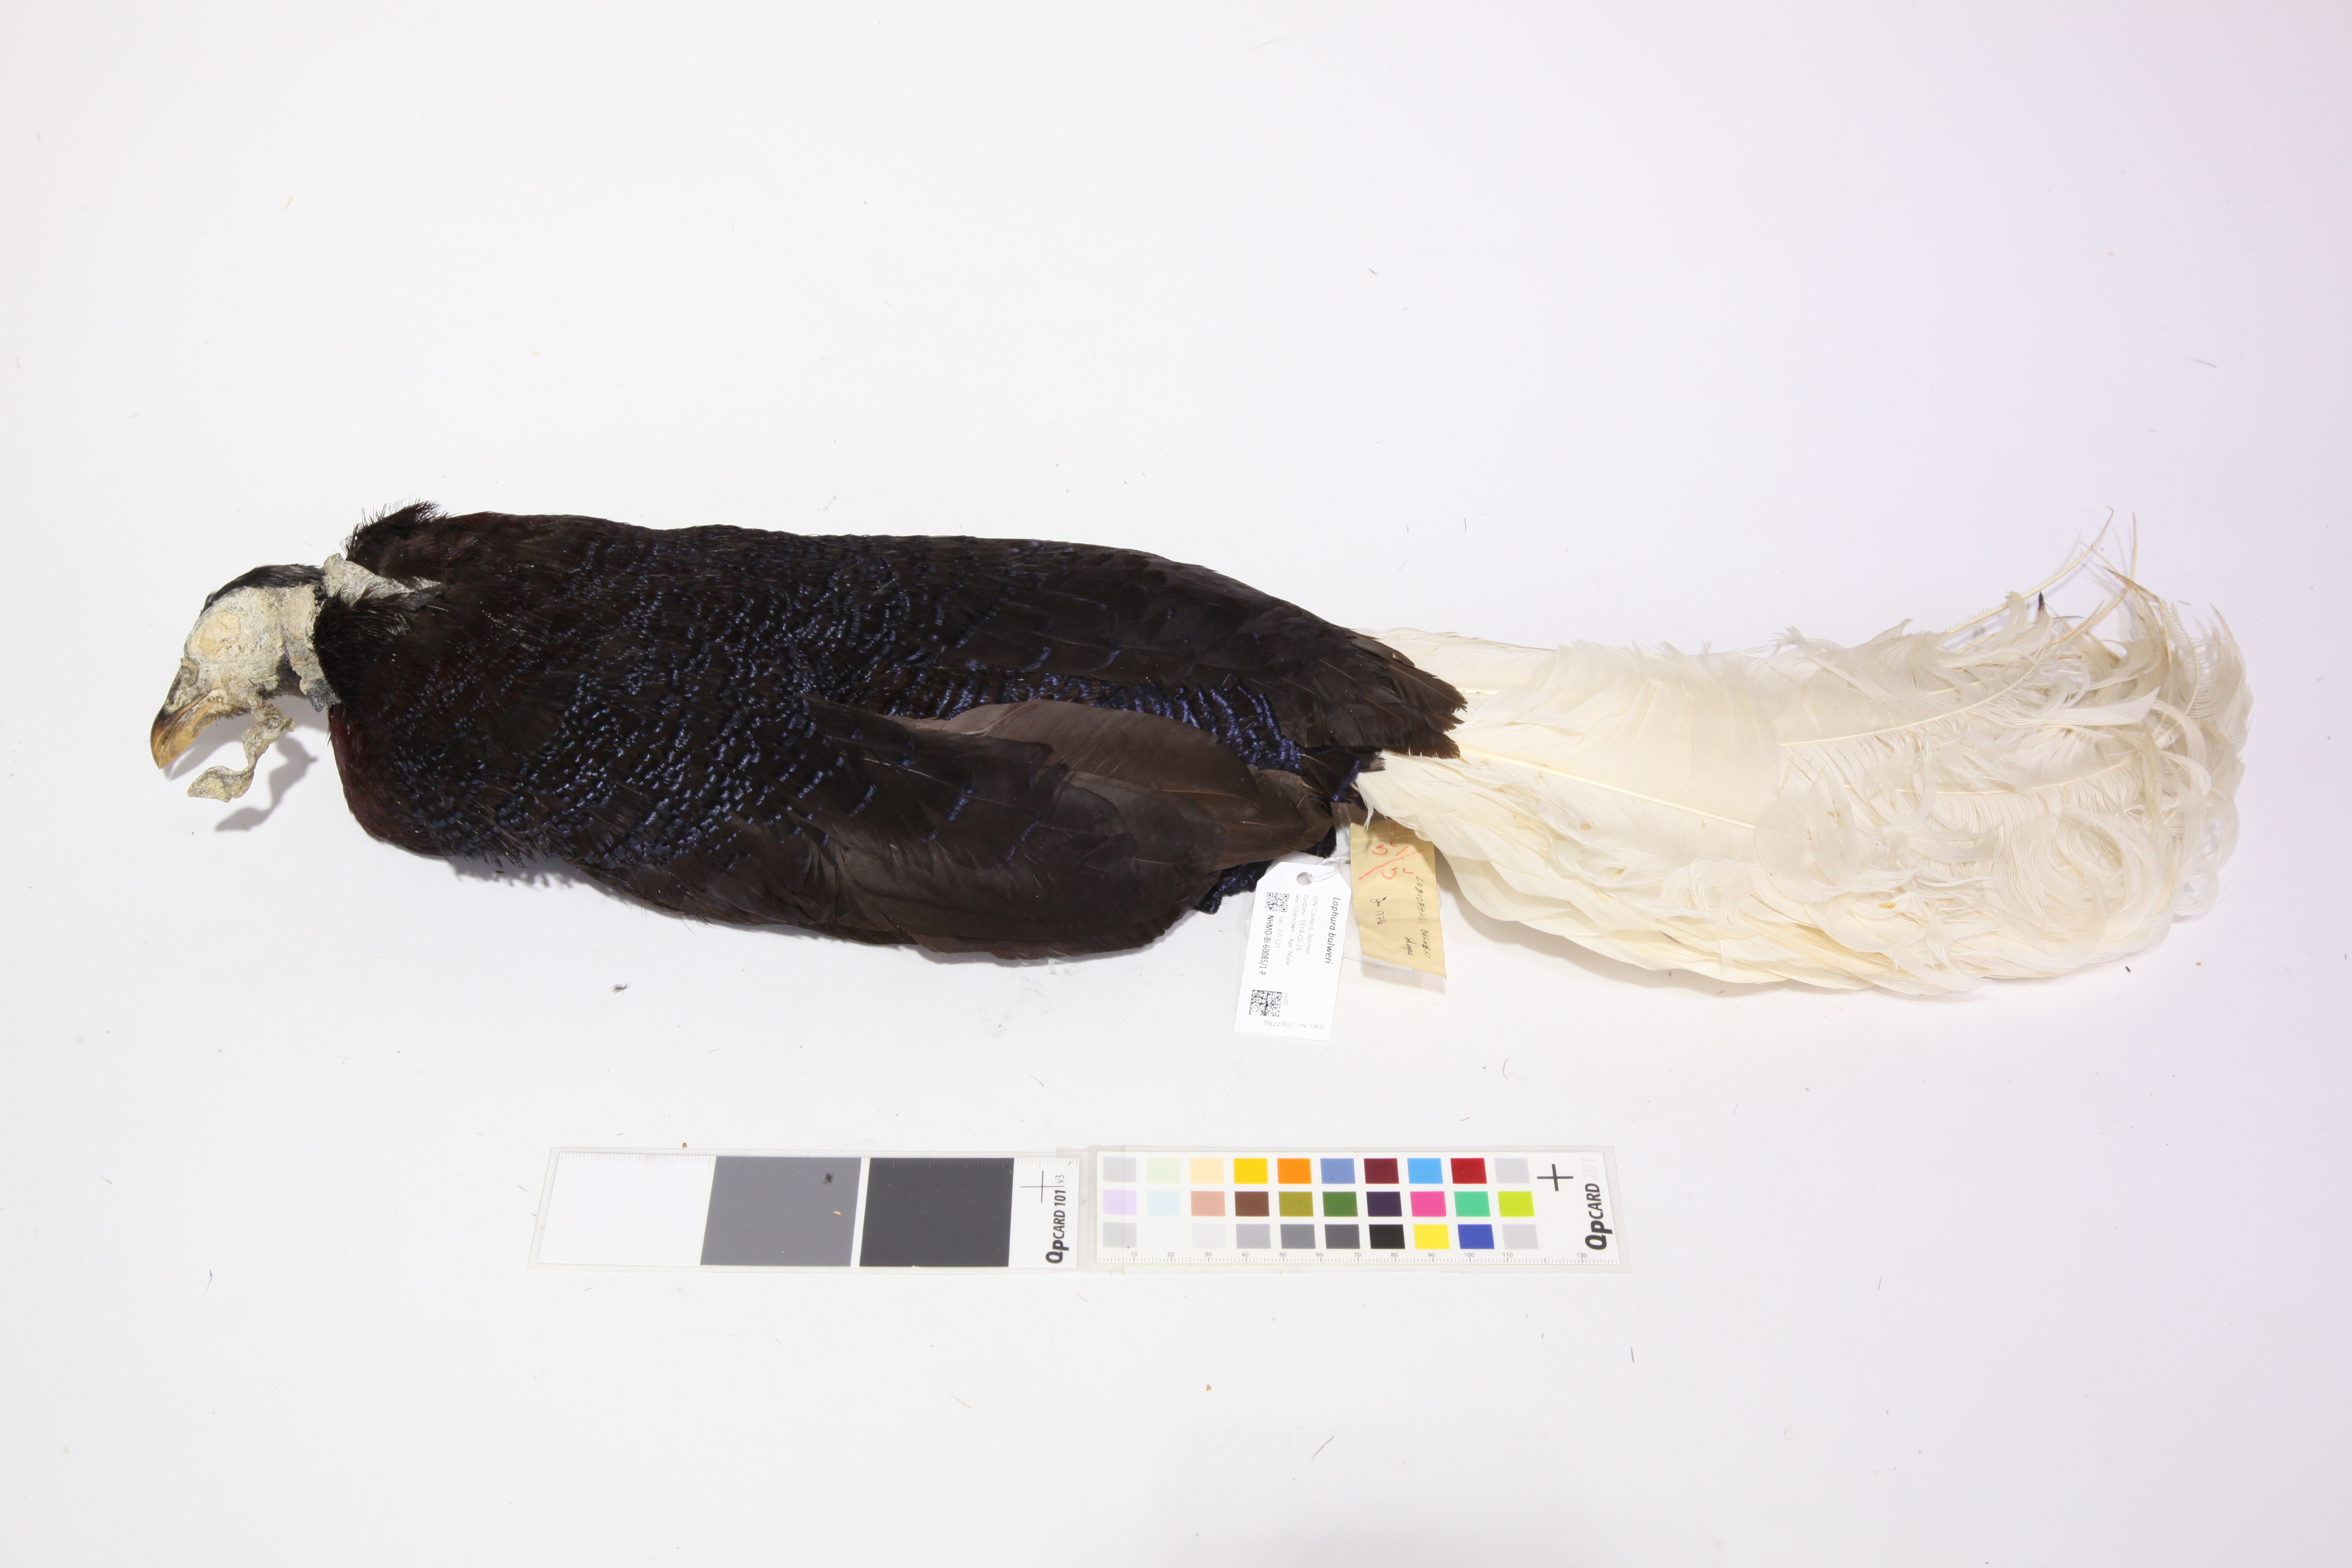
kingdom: Animalia
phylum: Chordata
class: Aves
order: Galliformes
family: Phasianidae
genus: Lophura
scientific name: Lophura bulweri
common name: Bulwer's pheasant
